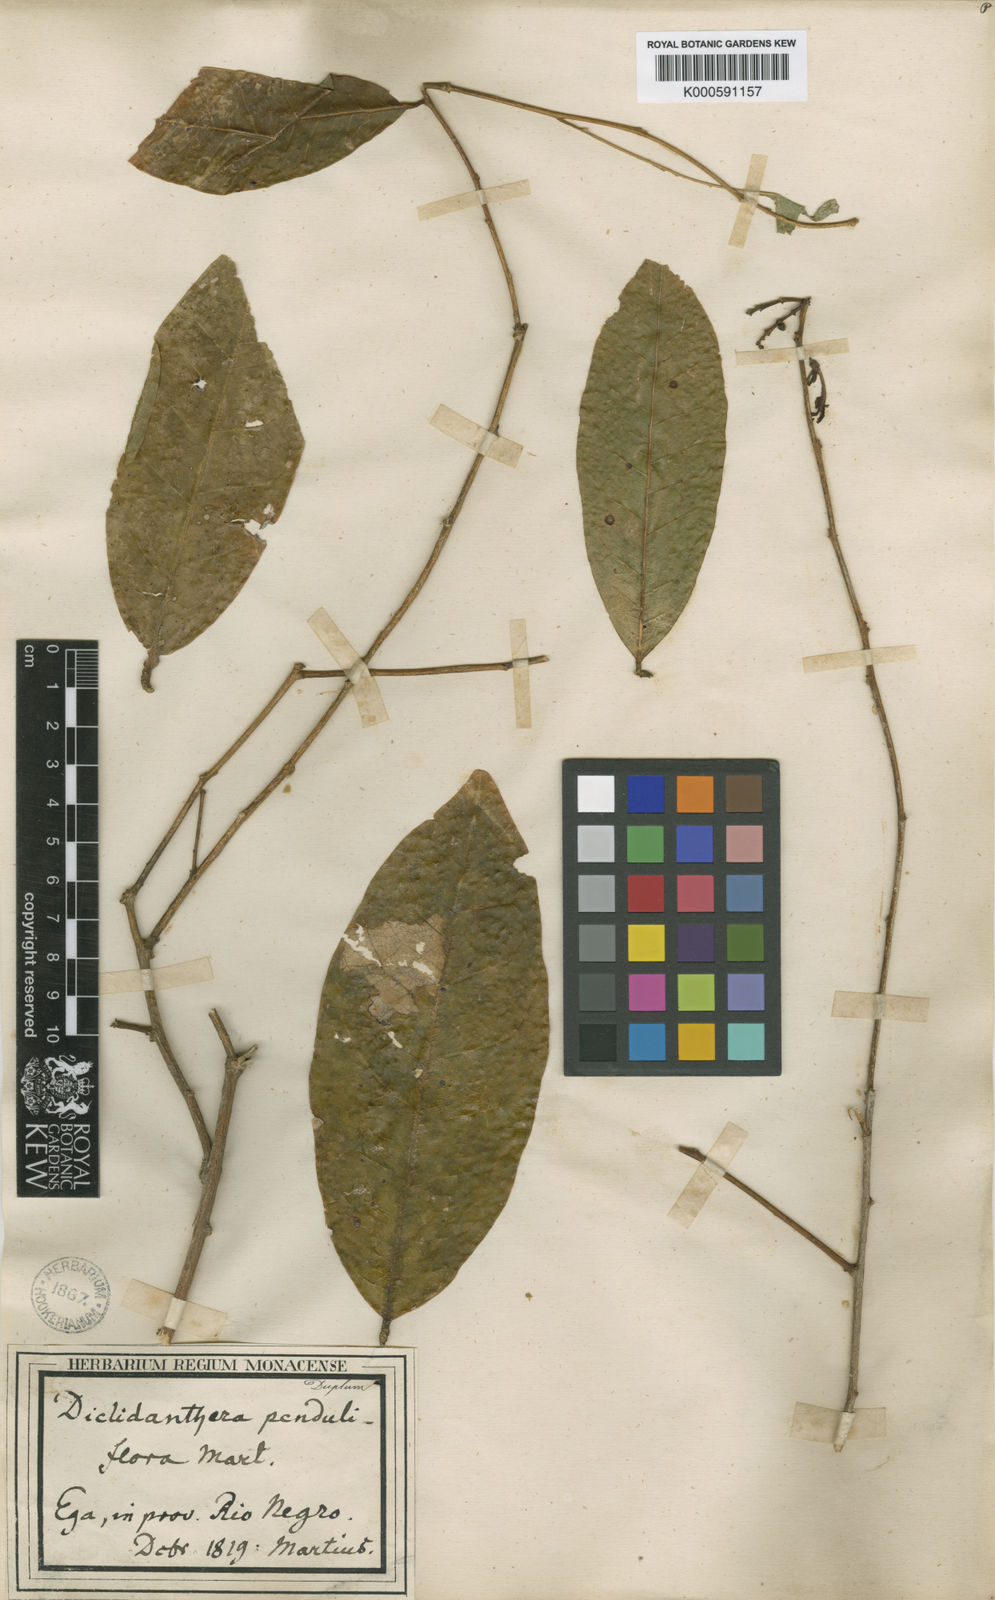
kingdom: Plantae
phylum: Tracheophyta
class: Magnoliopsida
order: Fabales
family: Polygalaceae
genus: Diclidanthera
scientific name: Diclidanthera penduliflora
